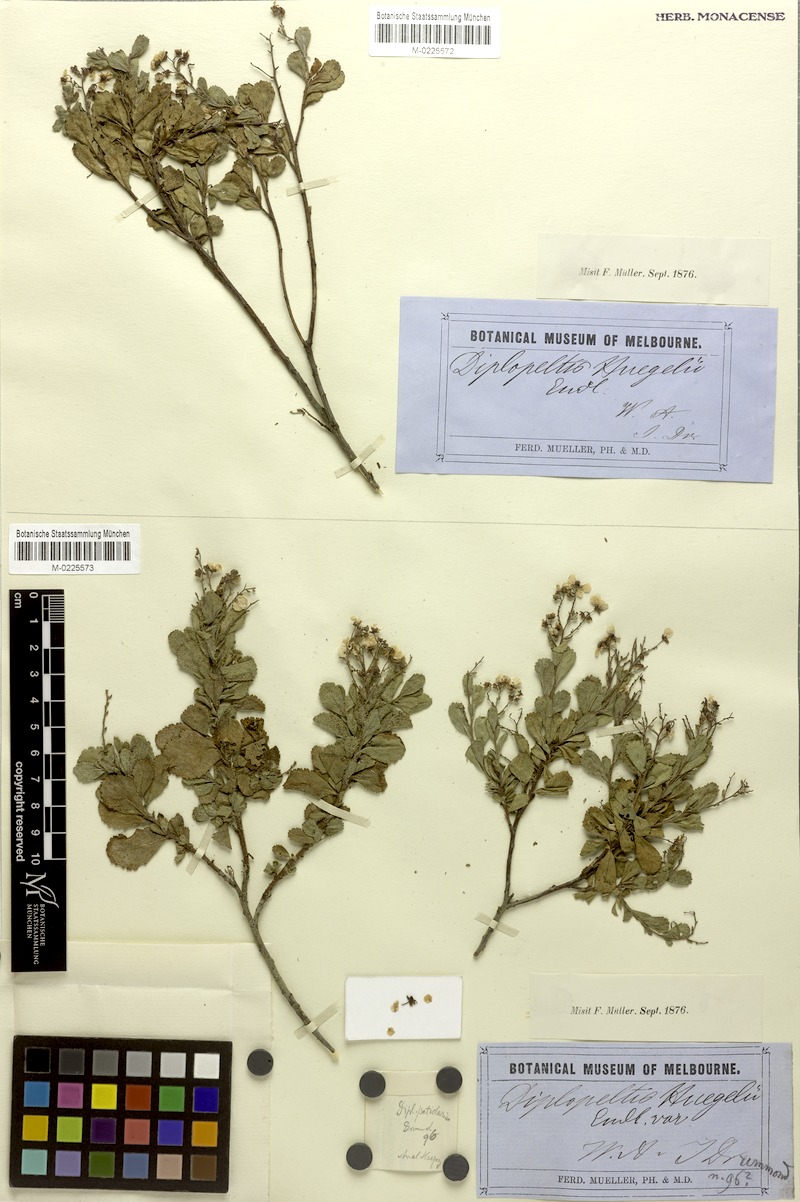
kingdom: Plantae
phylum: Tracheophyta
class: Magnoliopsida
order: Sapindales
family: Sapindaceae
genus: Dodonaea
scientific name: Dodonaea petiolaris
